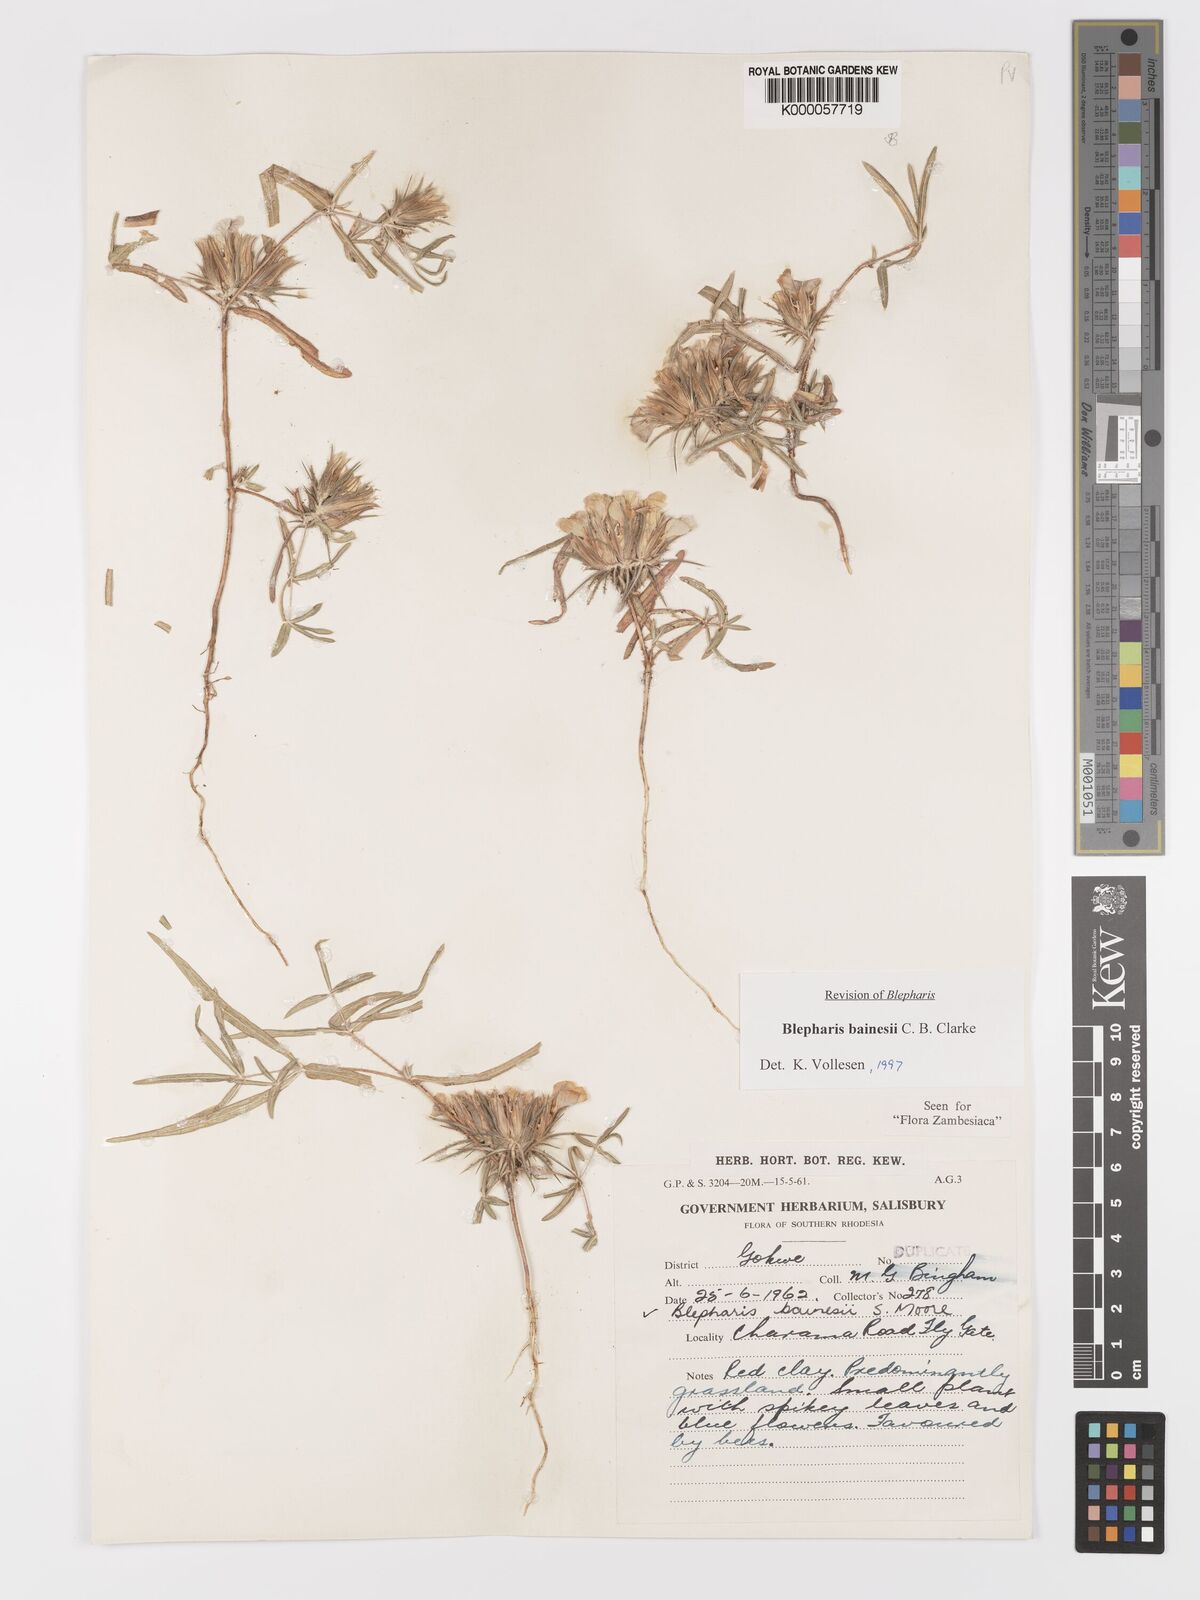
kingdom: Plantae
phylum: Tracheophyta
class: Magnoliopsida
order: Lamiales
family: Acanthaceae
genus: Blepharis
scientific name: Blepharis bainesii
